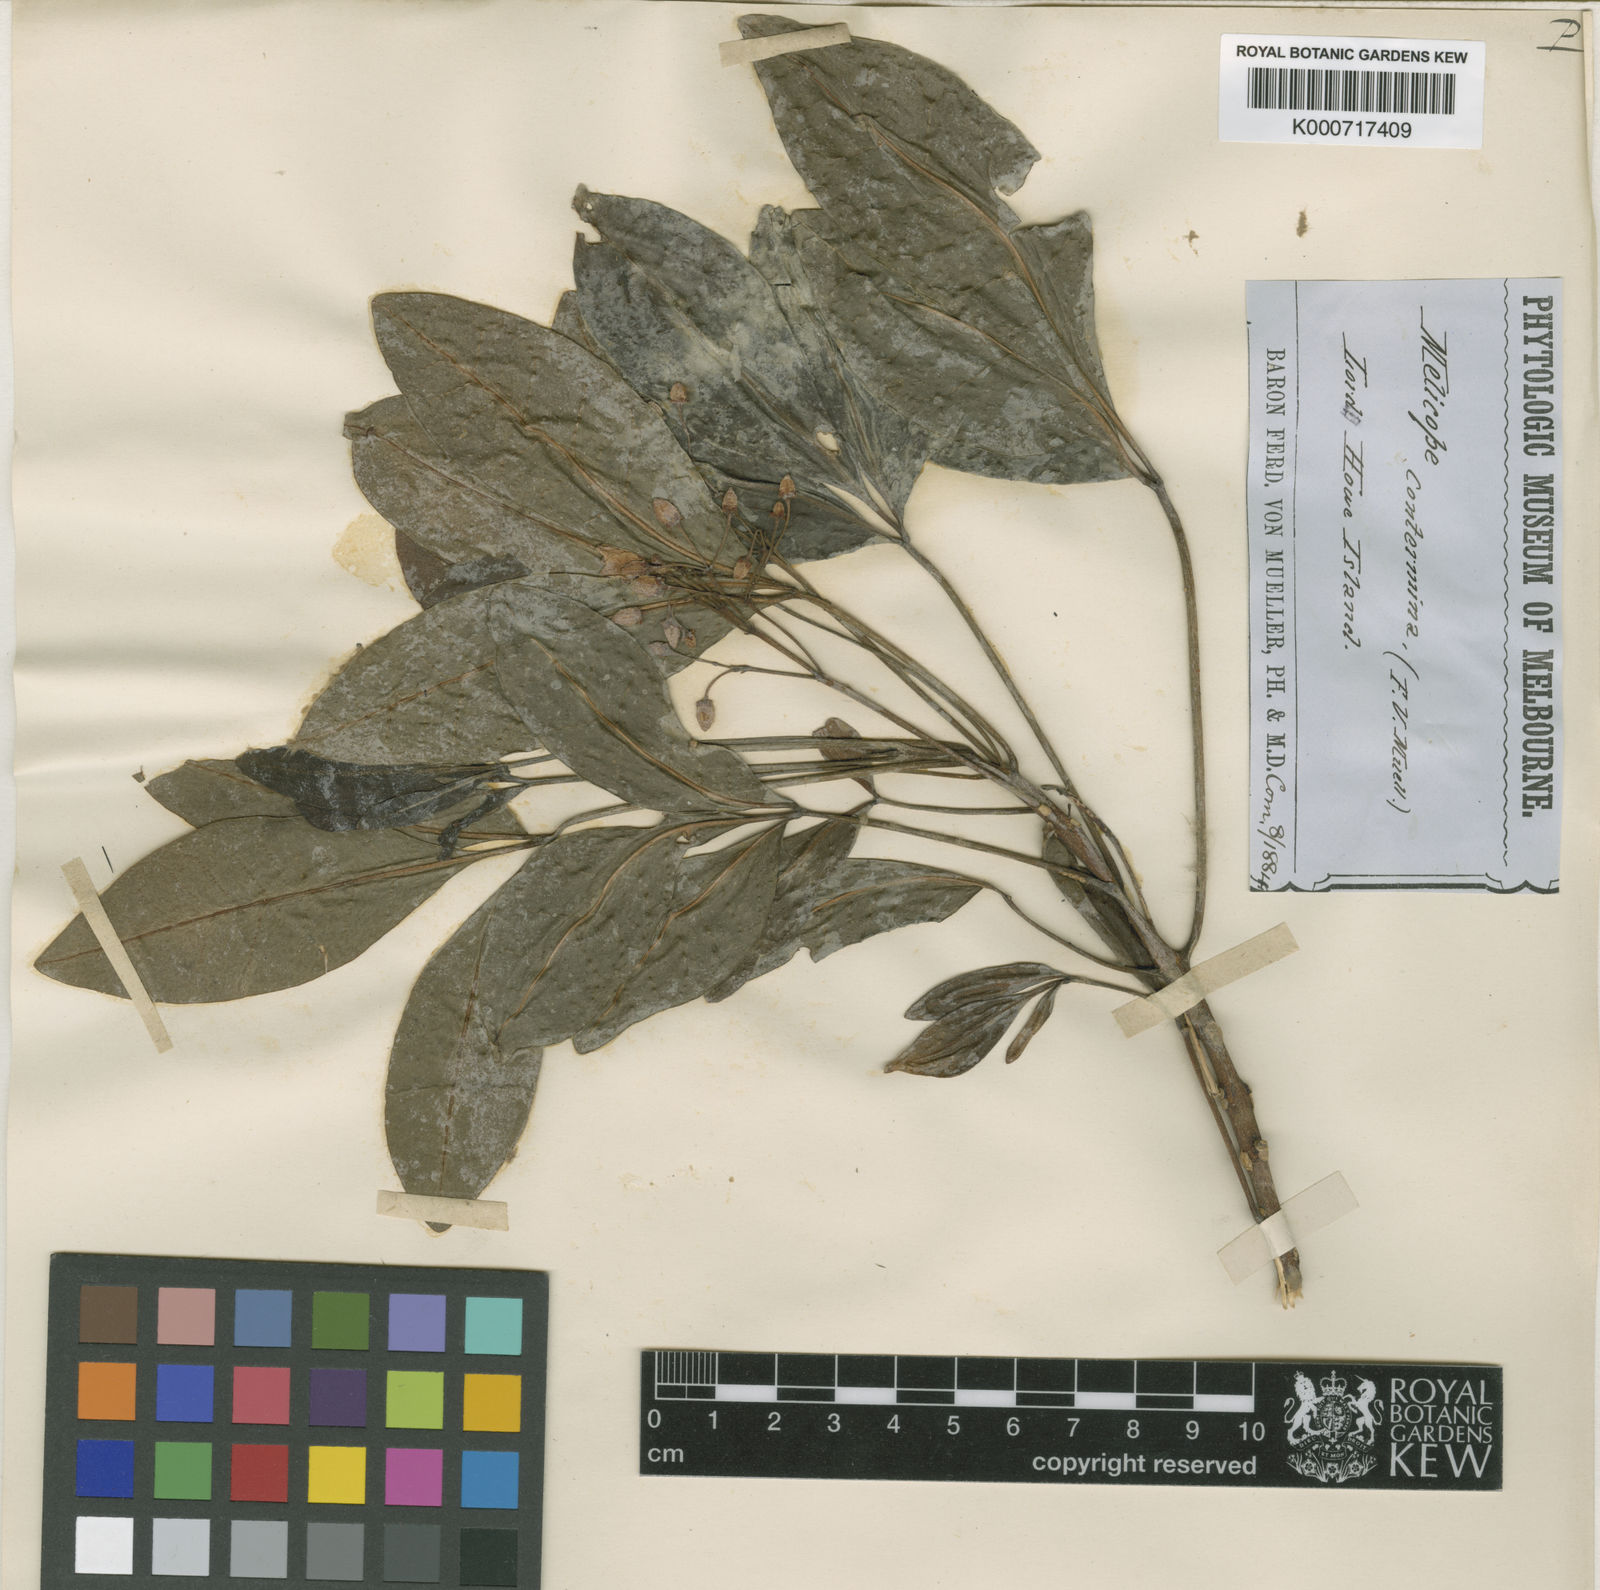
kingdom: Plantae
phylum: Tracheophyta
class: Magnoliopsida
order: Sapindales
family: Rutaceae
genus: Melicope
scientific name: Melicope contermina
